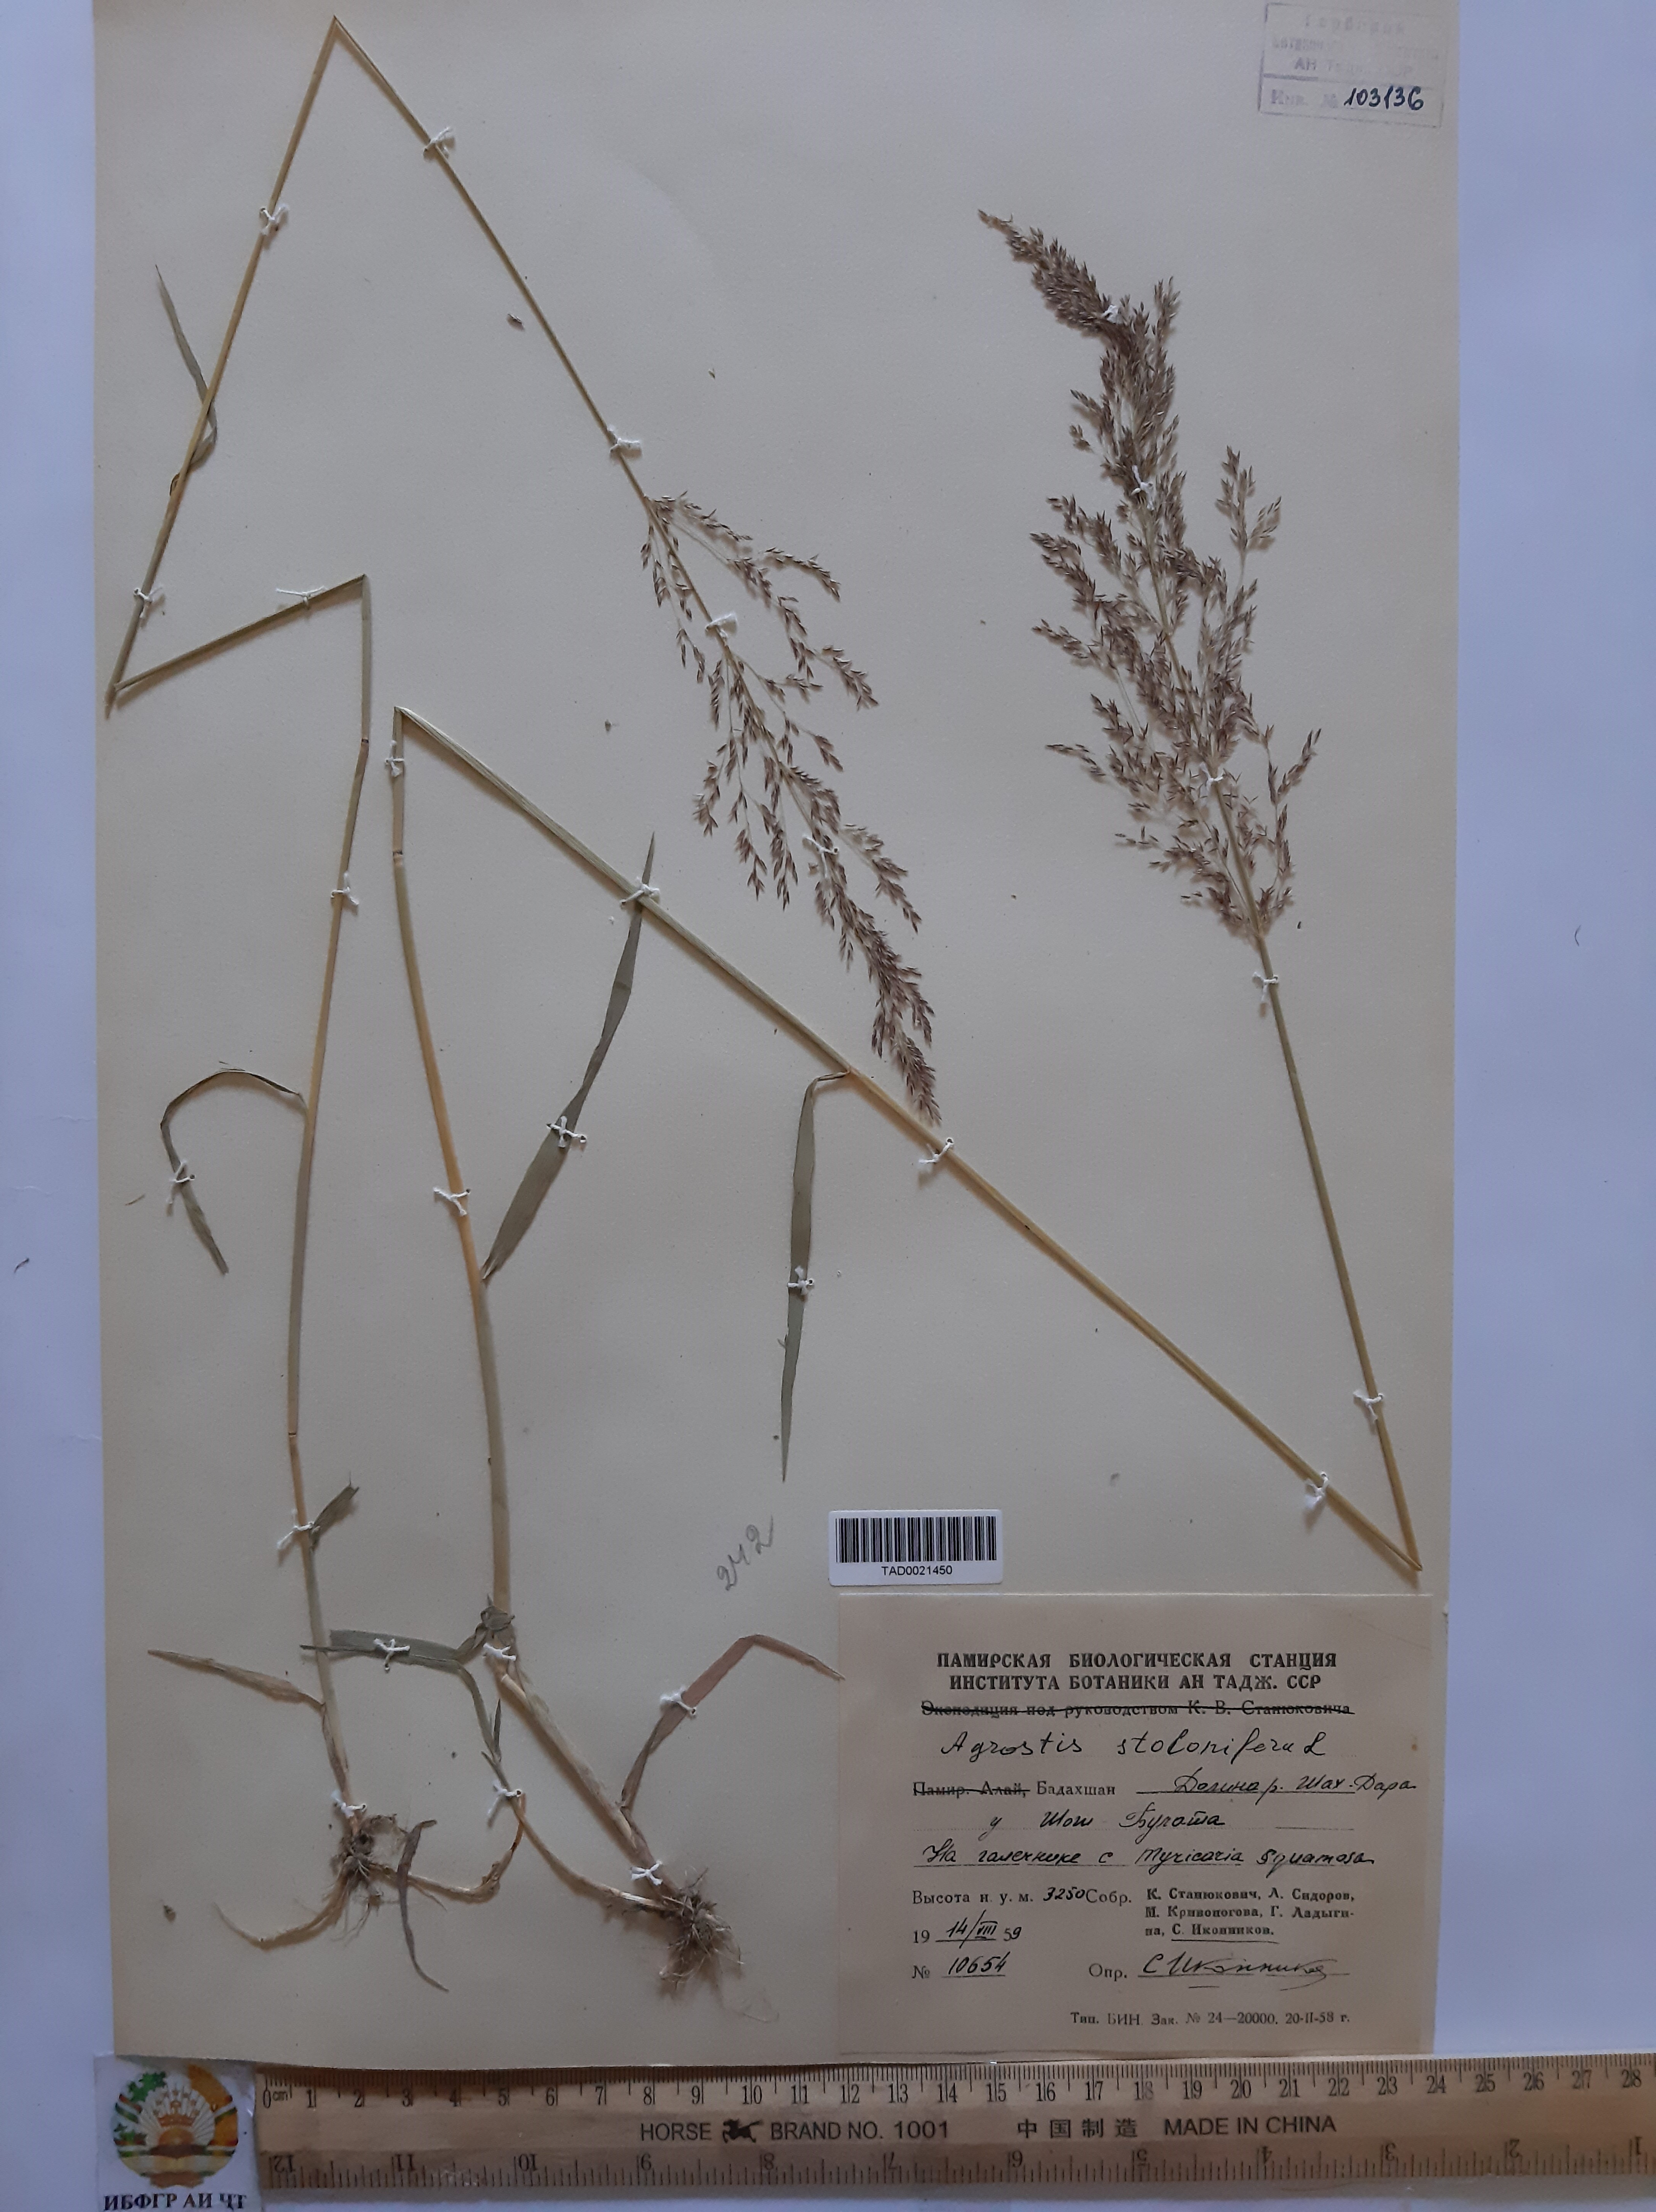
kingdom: Plantae
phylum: Tracheophyta
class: Liliopsida
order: Poales
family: Poaceae
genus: Agrostis
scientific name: Agrostis stolonifera
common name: Creeping bentgrass
